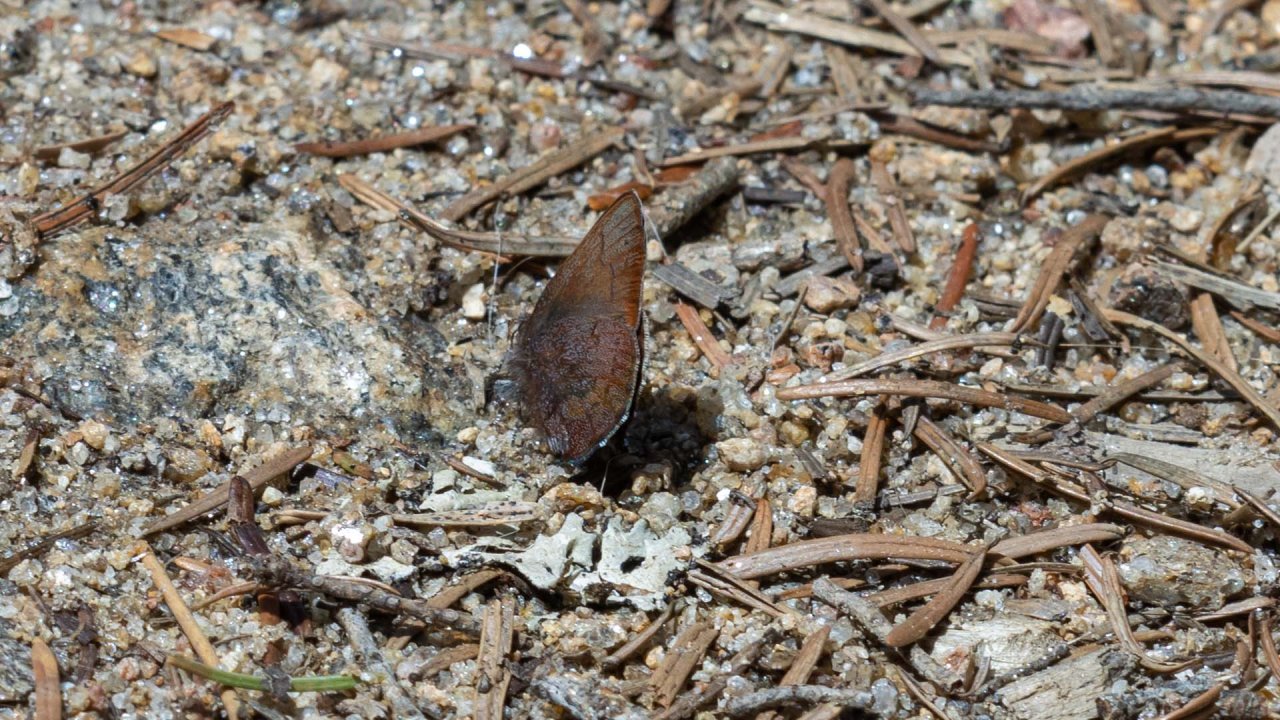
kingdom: Animalia
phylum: Arthropoda
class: Insecta
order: Lepidoptera
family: Lycaenidae
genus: Incisalia
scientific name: Incisalia irioides
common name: Brown Elfin
